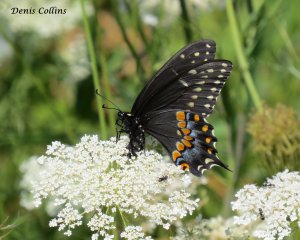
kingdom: Animalia
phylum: Arthropoda
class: Insecta
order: Lepidoptera
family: Papilionidae
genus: Papilio
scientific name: Papilio polyxenes
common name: Black Swallowtail
